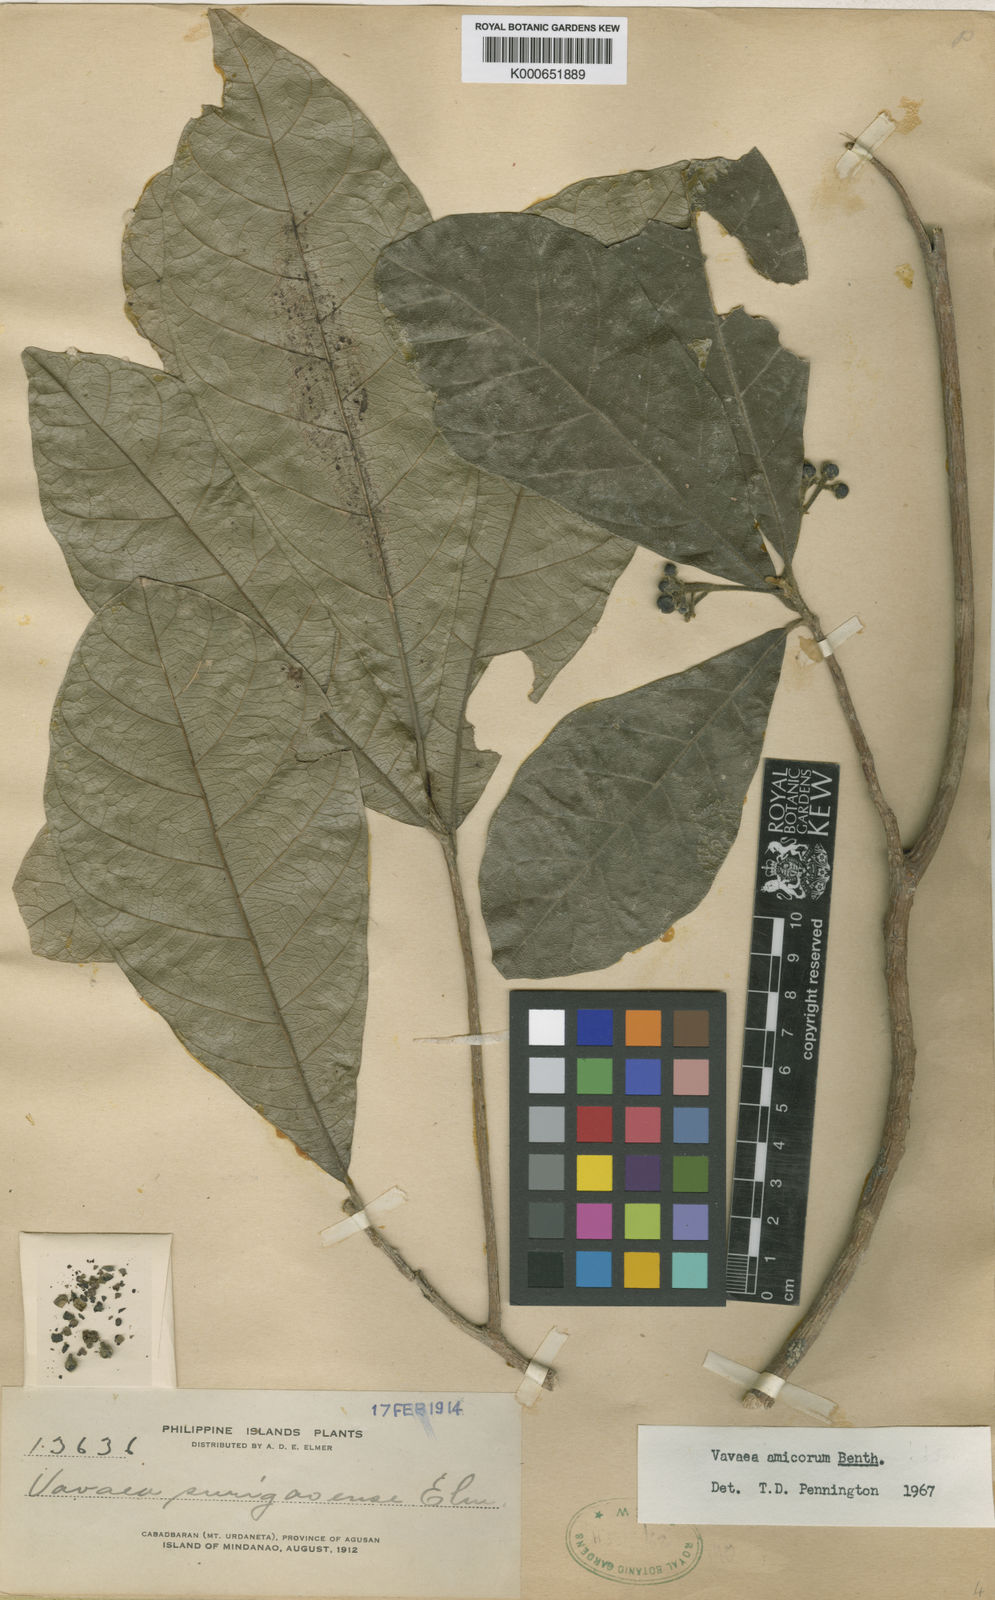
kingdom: Plantae
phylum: Tracheophyta
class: Magnoliopsida
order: Sapindales
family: Meliaceae
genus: Vavaea
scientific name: Vavaea amicorum
